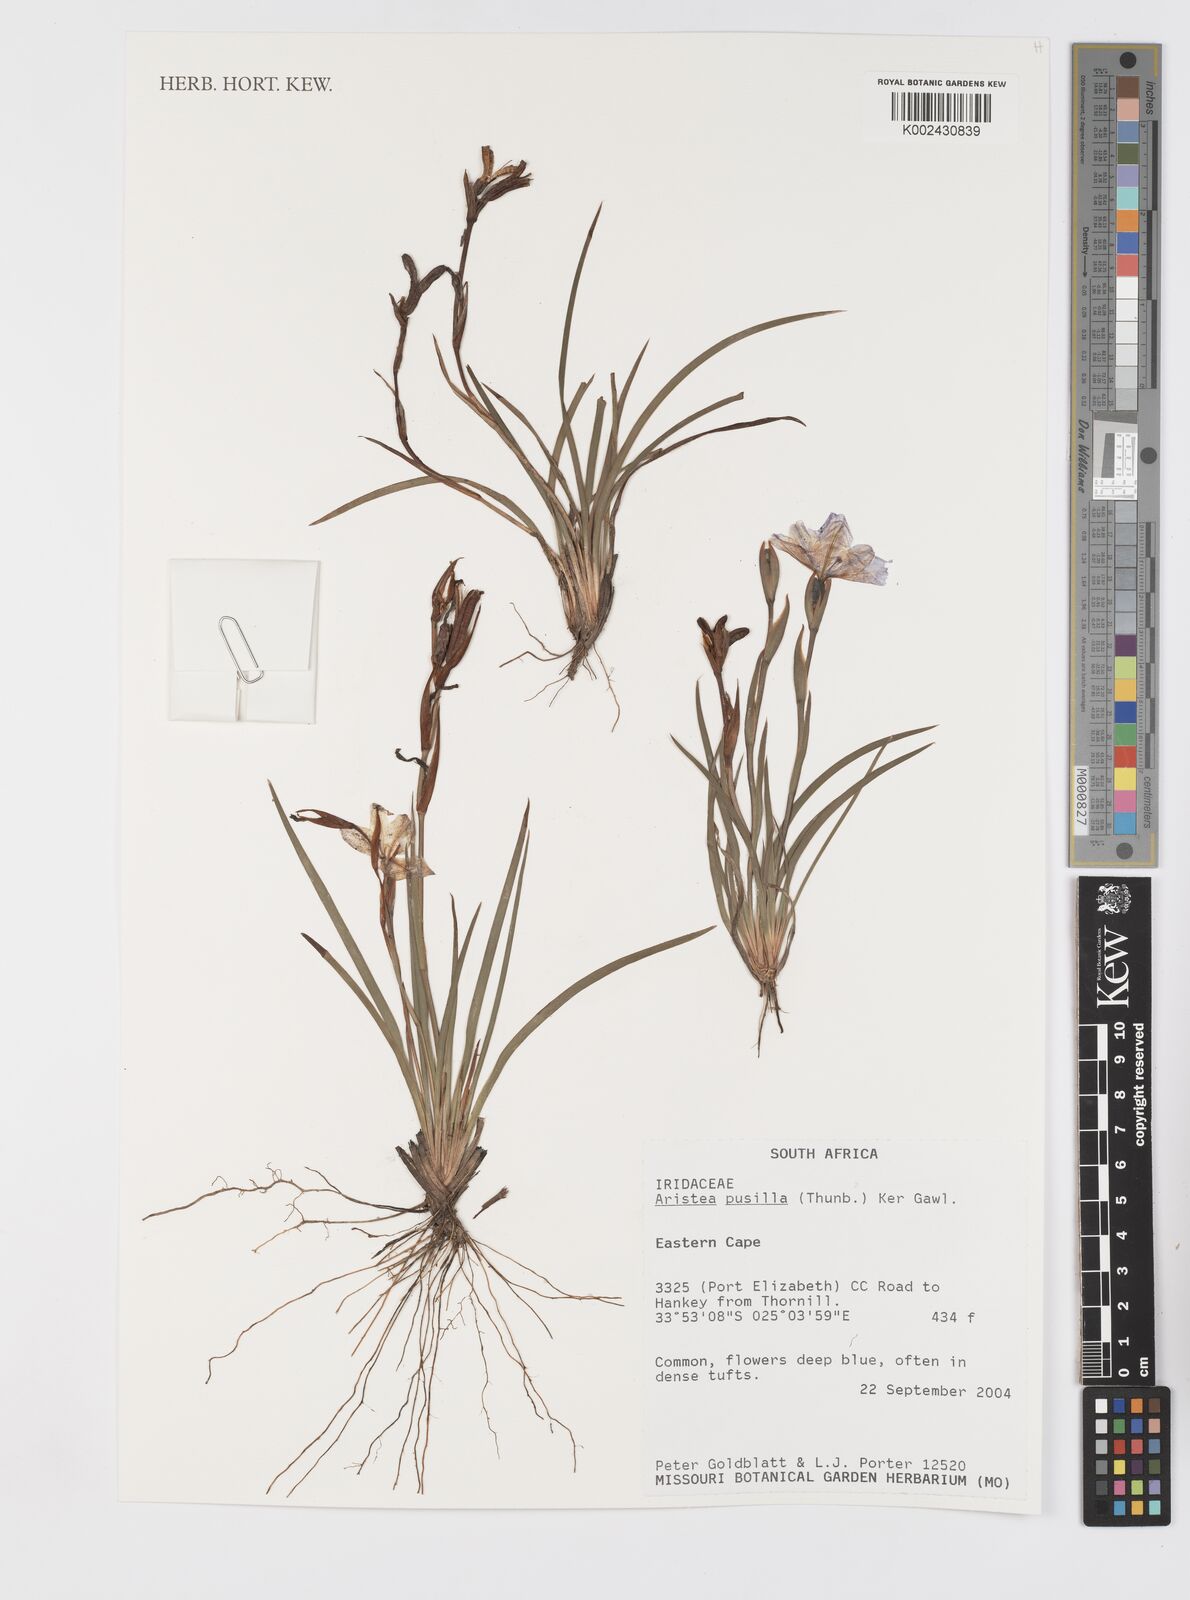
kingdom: Plantae
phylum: Tracheophyta
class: Liliopsida
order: Asparagales
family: Iridaceae
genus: Aristea
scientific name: Aristea pusilla
